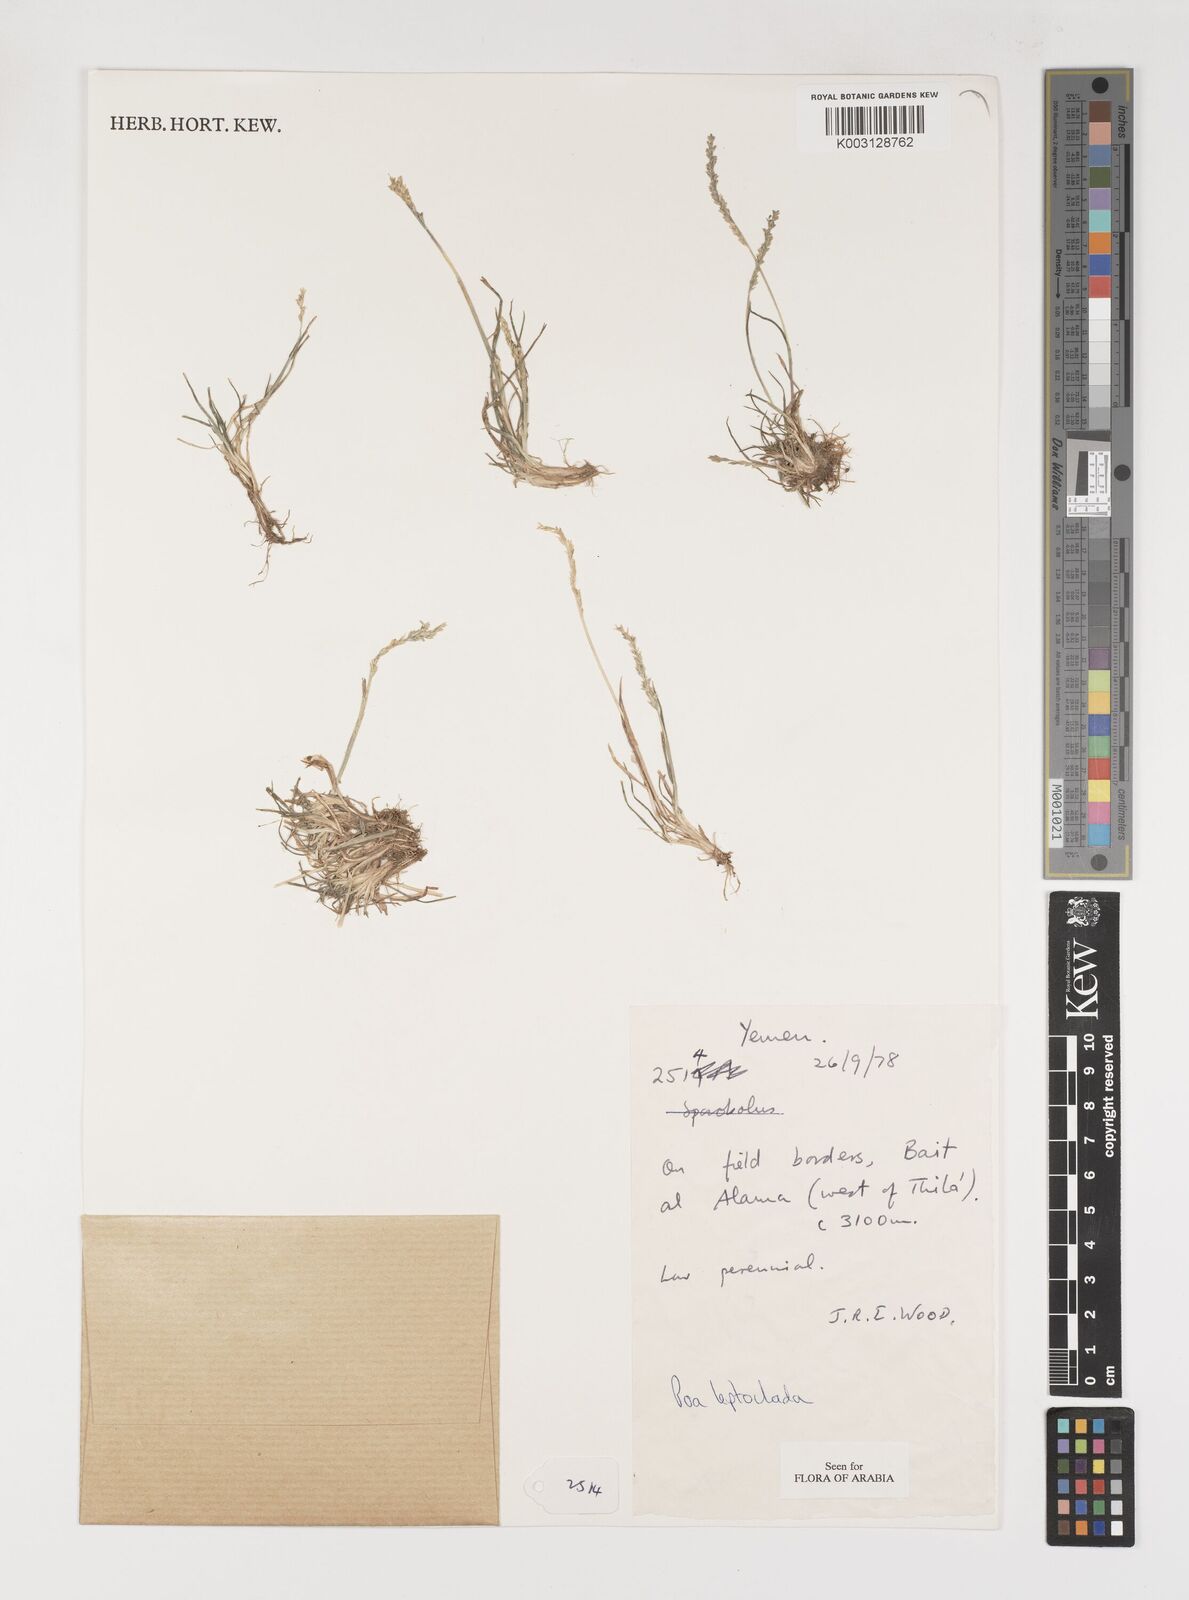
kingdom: Plantae
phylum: Tracheophyta
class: Liliopsida
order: Poales
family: Poaceae
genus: Poa
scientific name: Poa leptoclada
